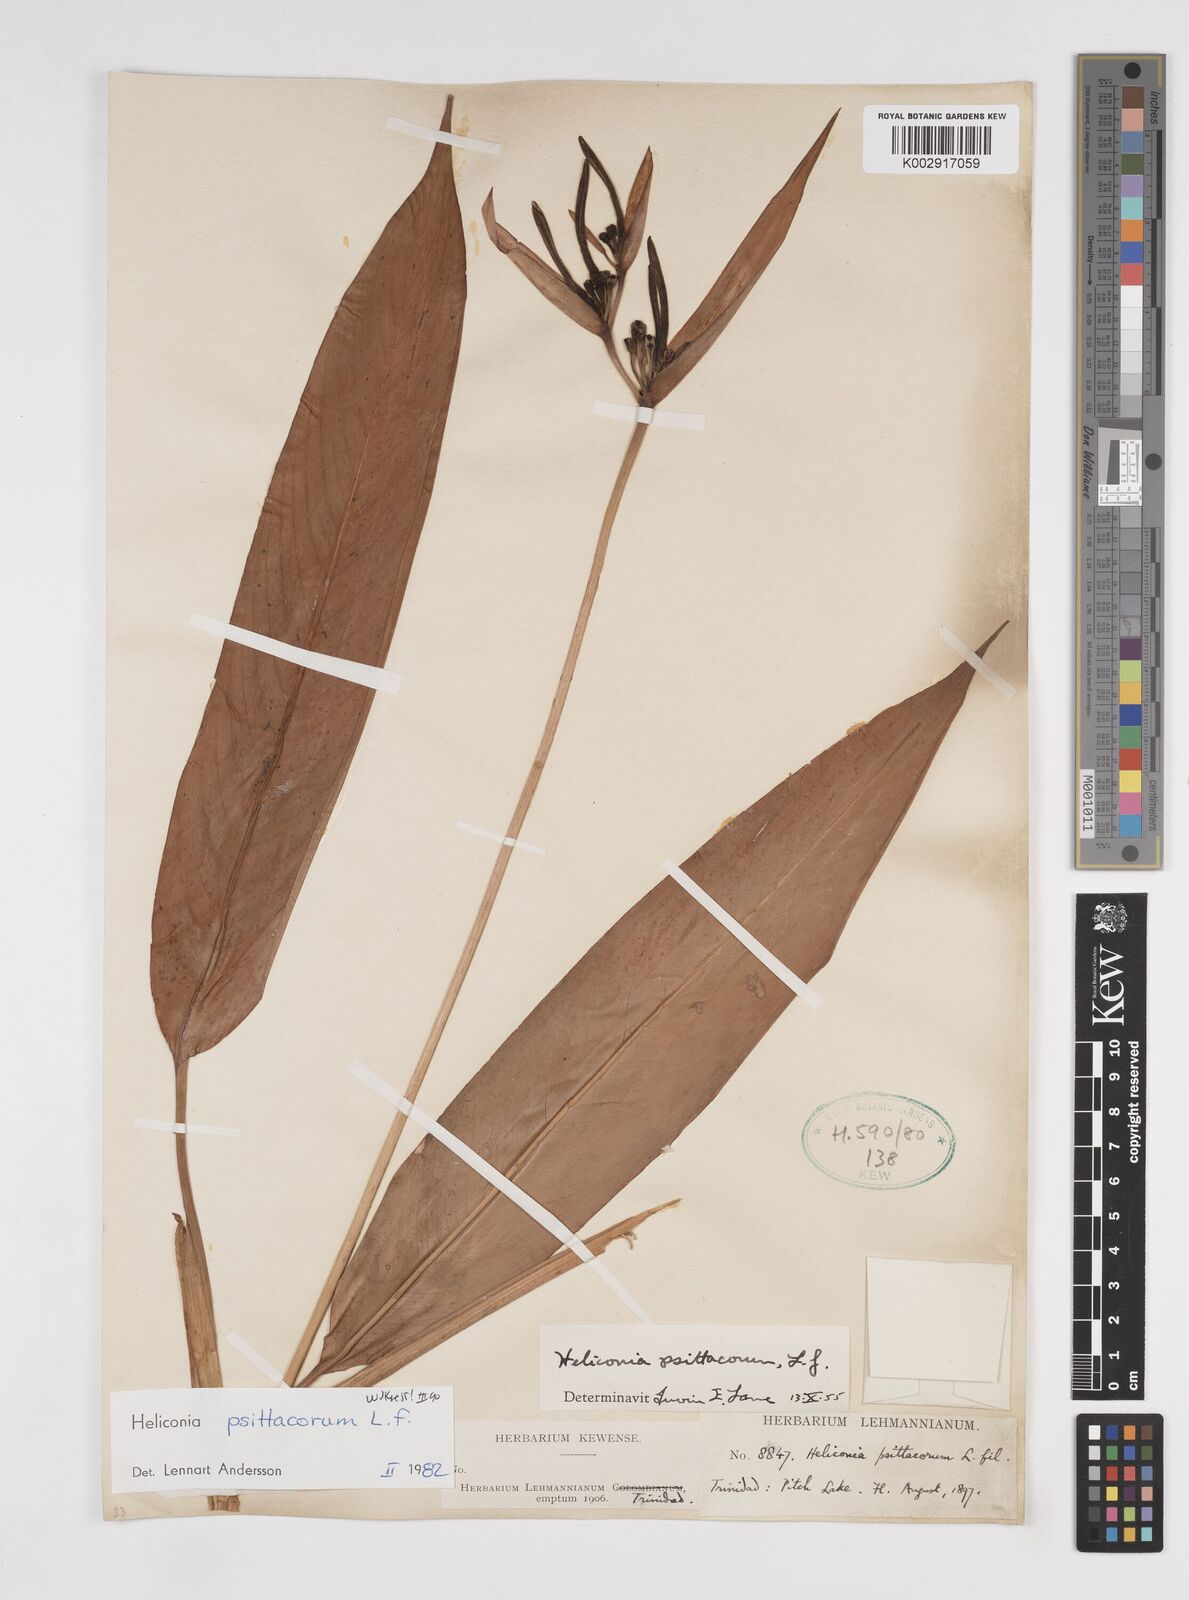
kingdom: Plantae
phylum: Tracheophyta
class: Liliopsida
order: Zingiberales
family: Heliconiaceae
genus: Heliconia
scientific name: Heliconia psittacorum
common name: Parrot's-flower
